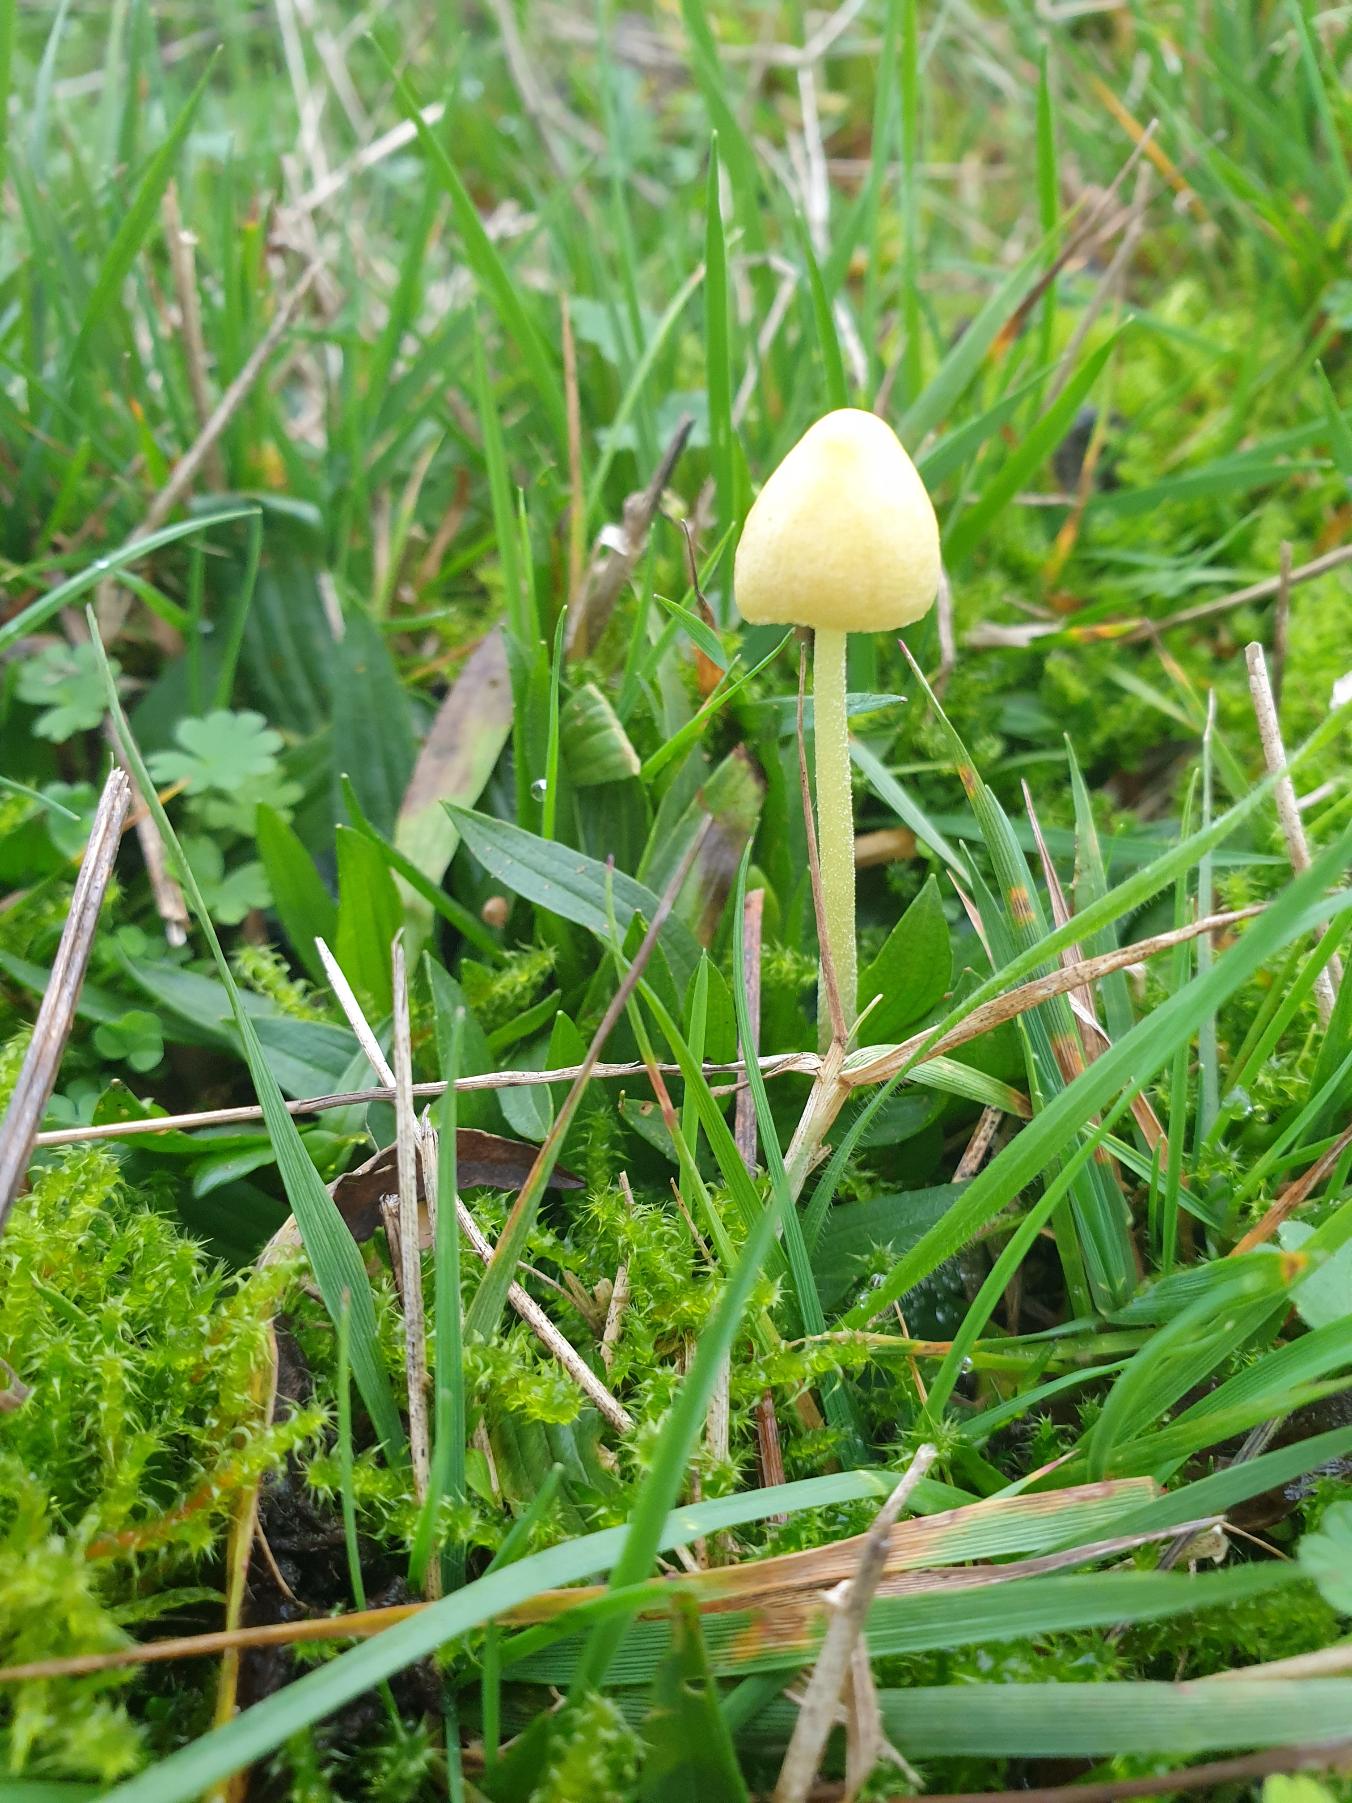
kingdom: Fungi
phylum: Basidiomycota
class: Agaricomycetes
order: Agaricales
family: Bolbitiaceae
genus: Bolbitius
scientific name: Bolbitius titubans
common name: Almindelig gulhat
